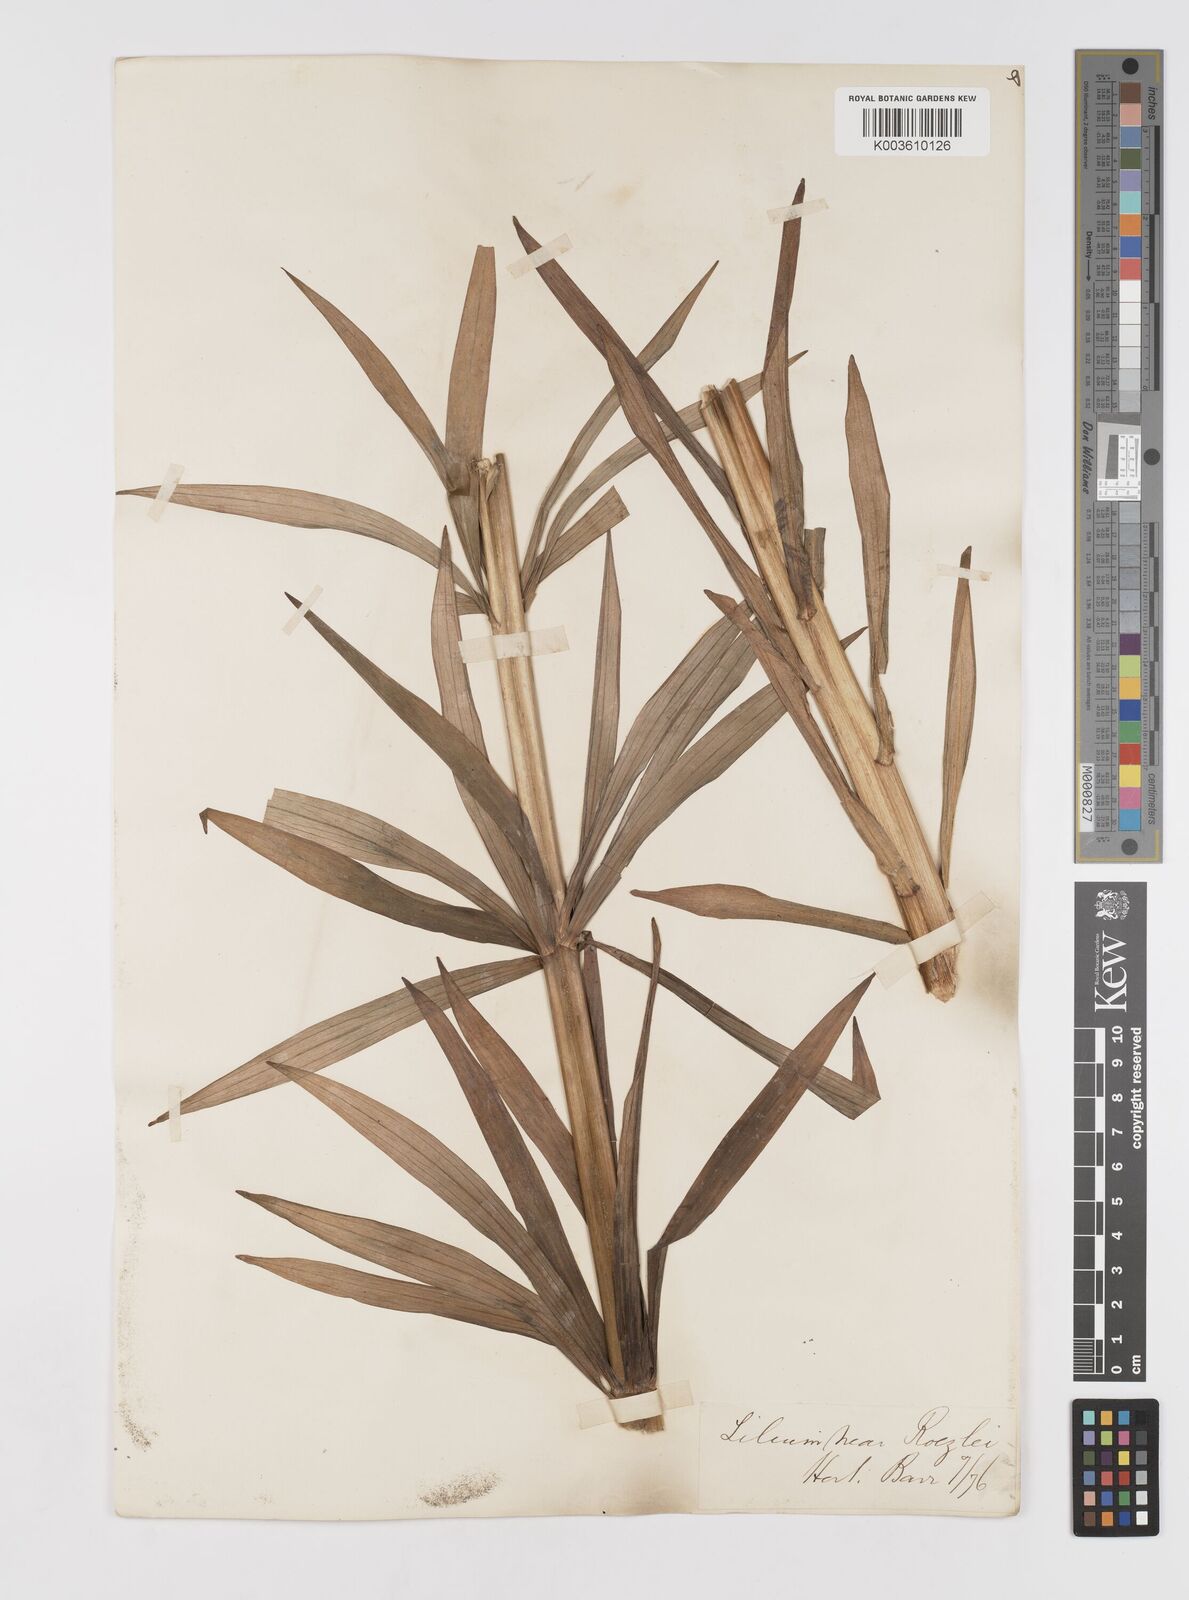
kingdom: Plantae
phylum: Tracheophyta
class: Liliopsida
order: Liliales
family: Liliaceae
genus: Lilium
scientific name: Lilium pardalinum
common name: Panther lily
